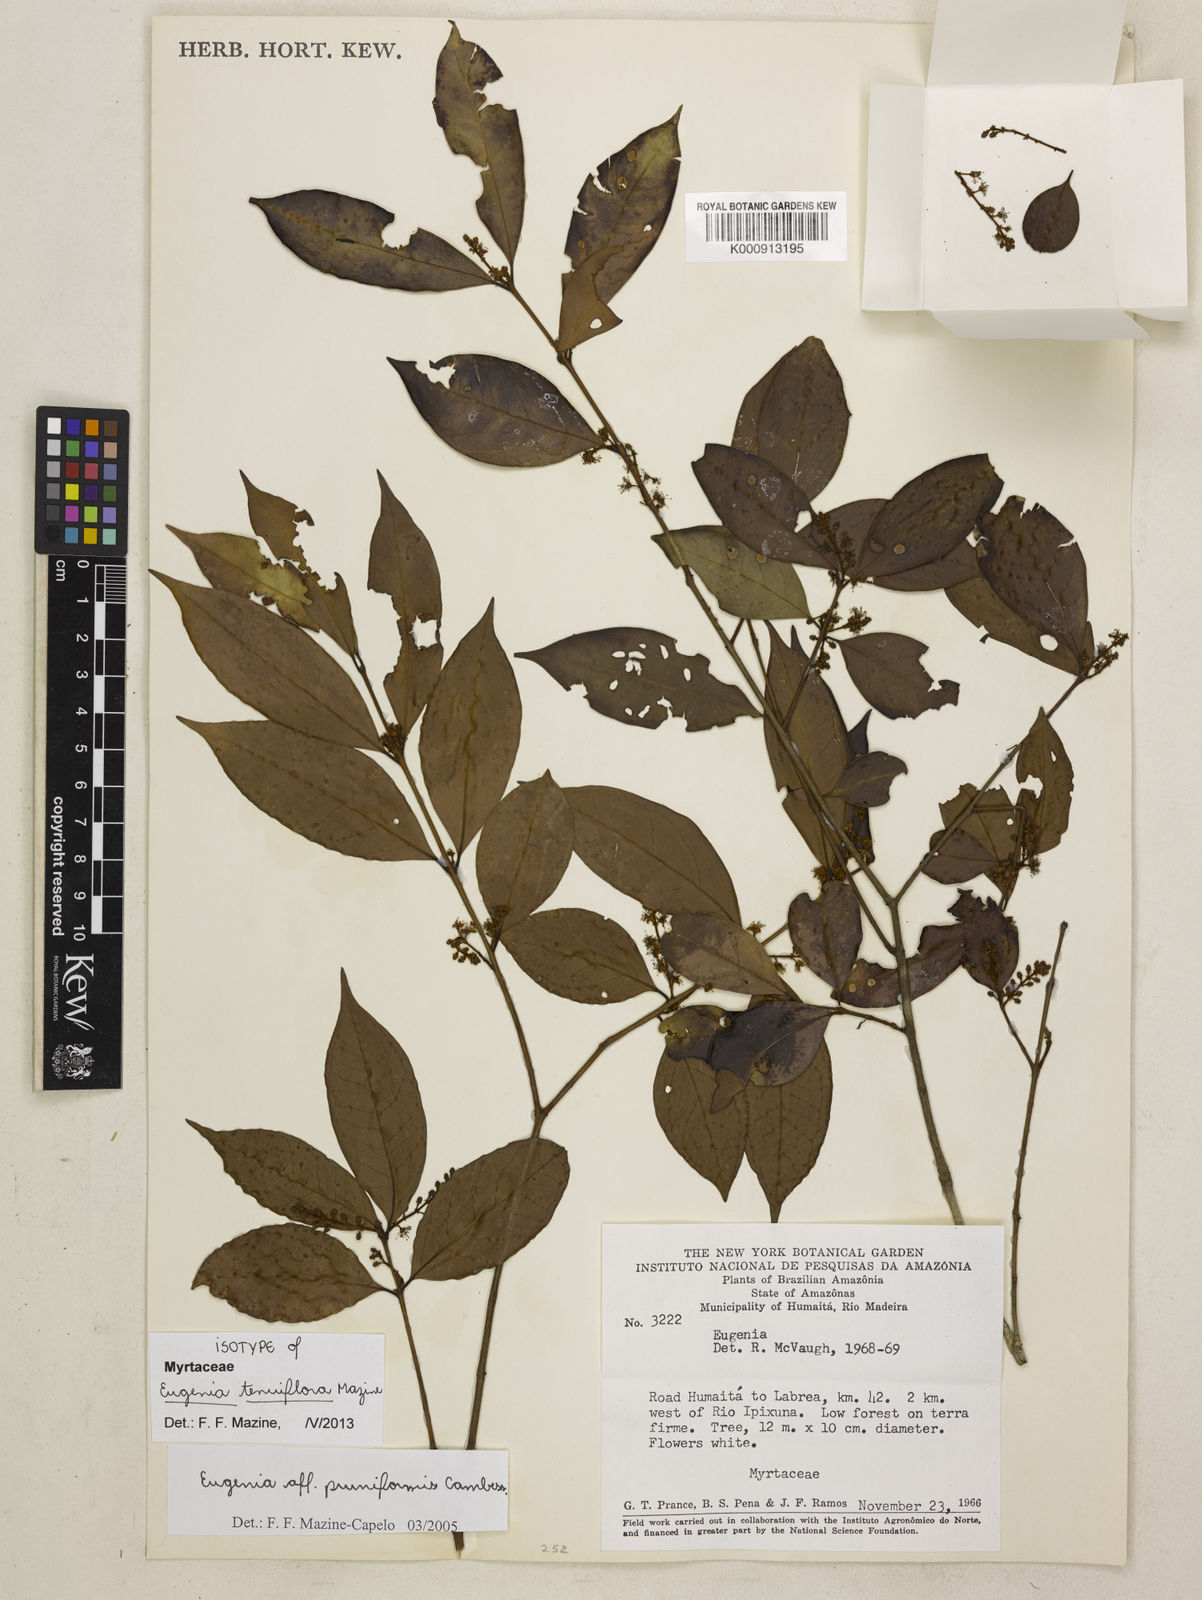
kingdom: Plantae
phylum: Tracheophyta
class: Magnoliopsida
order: Myrtales
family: Myrtaceae
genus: Eugenia
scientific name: Eugenia tenuiflora
